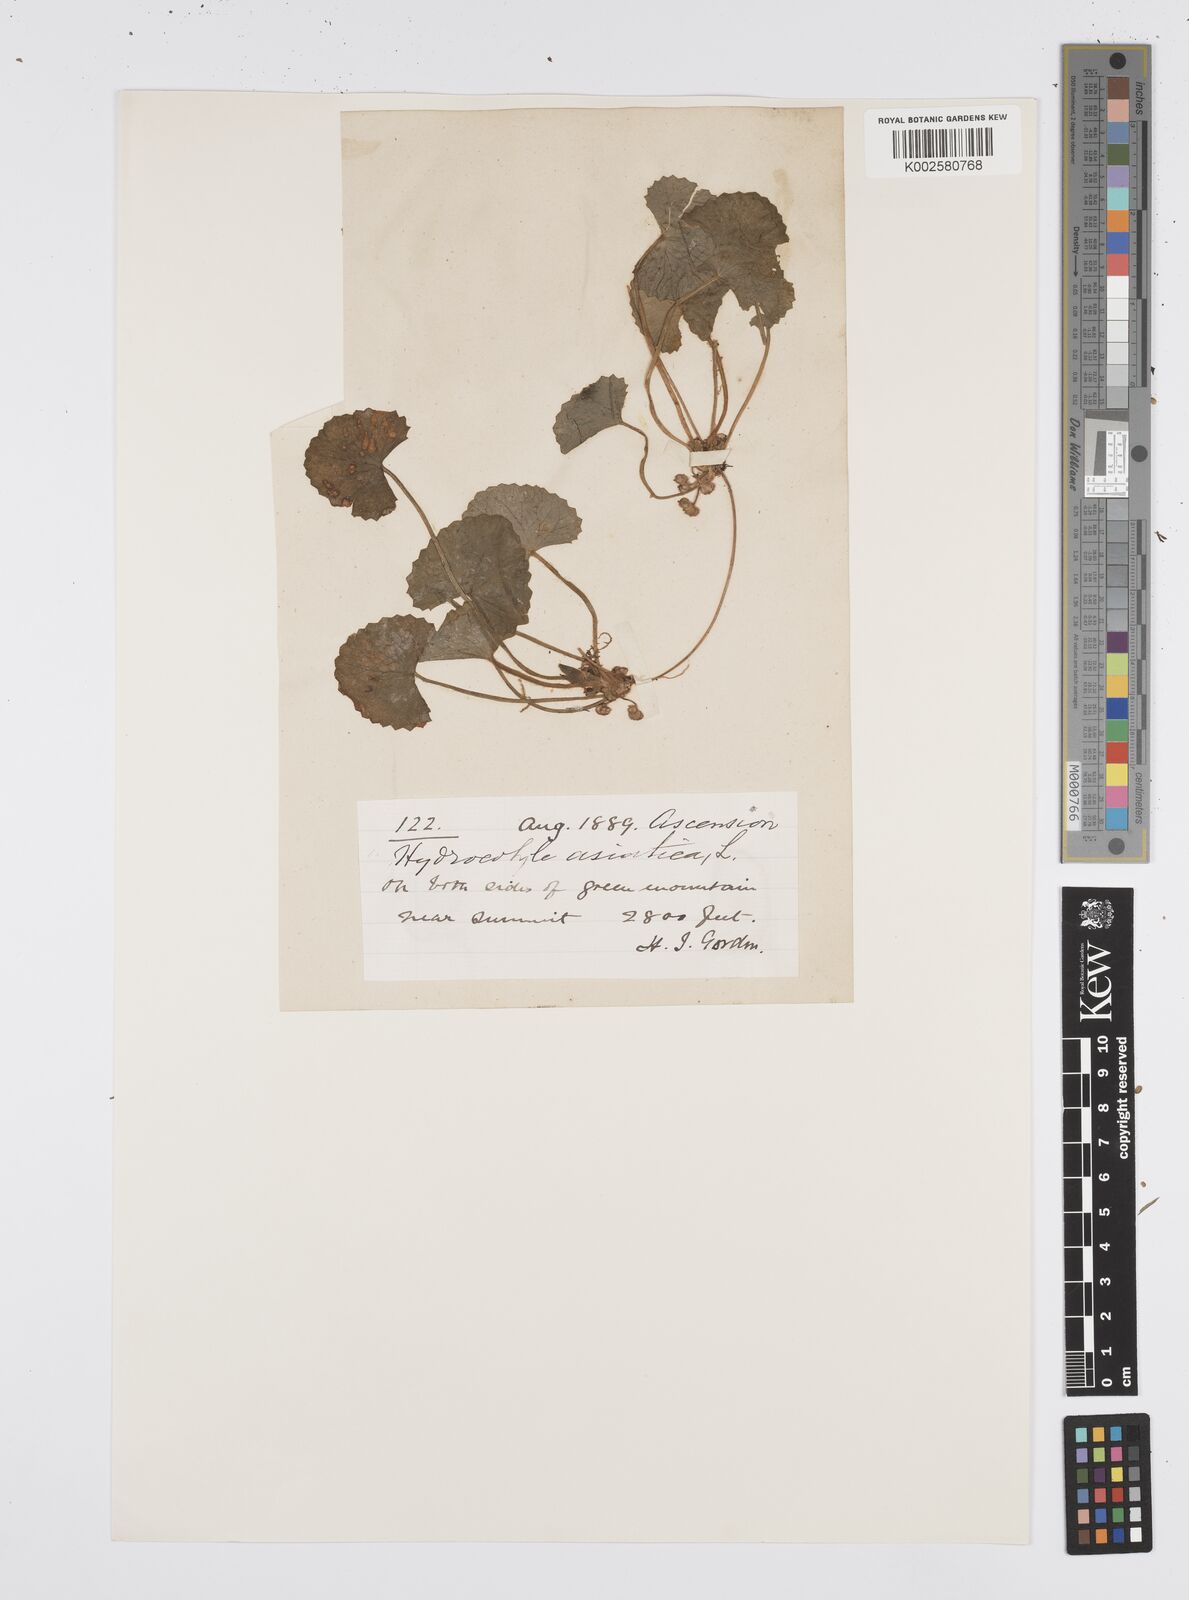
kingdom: Plantae
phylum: Tracheophyta
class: Magnoliopsida
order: Apiales
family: Apiaceae
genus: Centella
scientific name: Centella asiatica
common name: Spadeleaf
